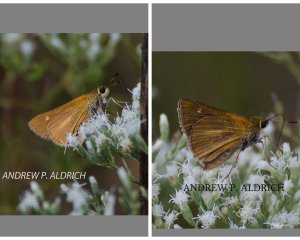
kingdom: Animalia
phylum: Arthropoda
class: Insecta
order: Lepidoptera
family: Hesperiidae
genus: Euphyes
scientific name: Euphyes dion
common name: Dion Skipper
